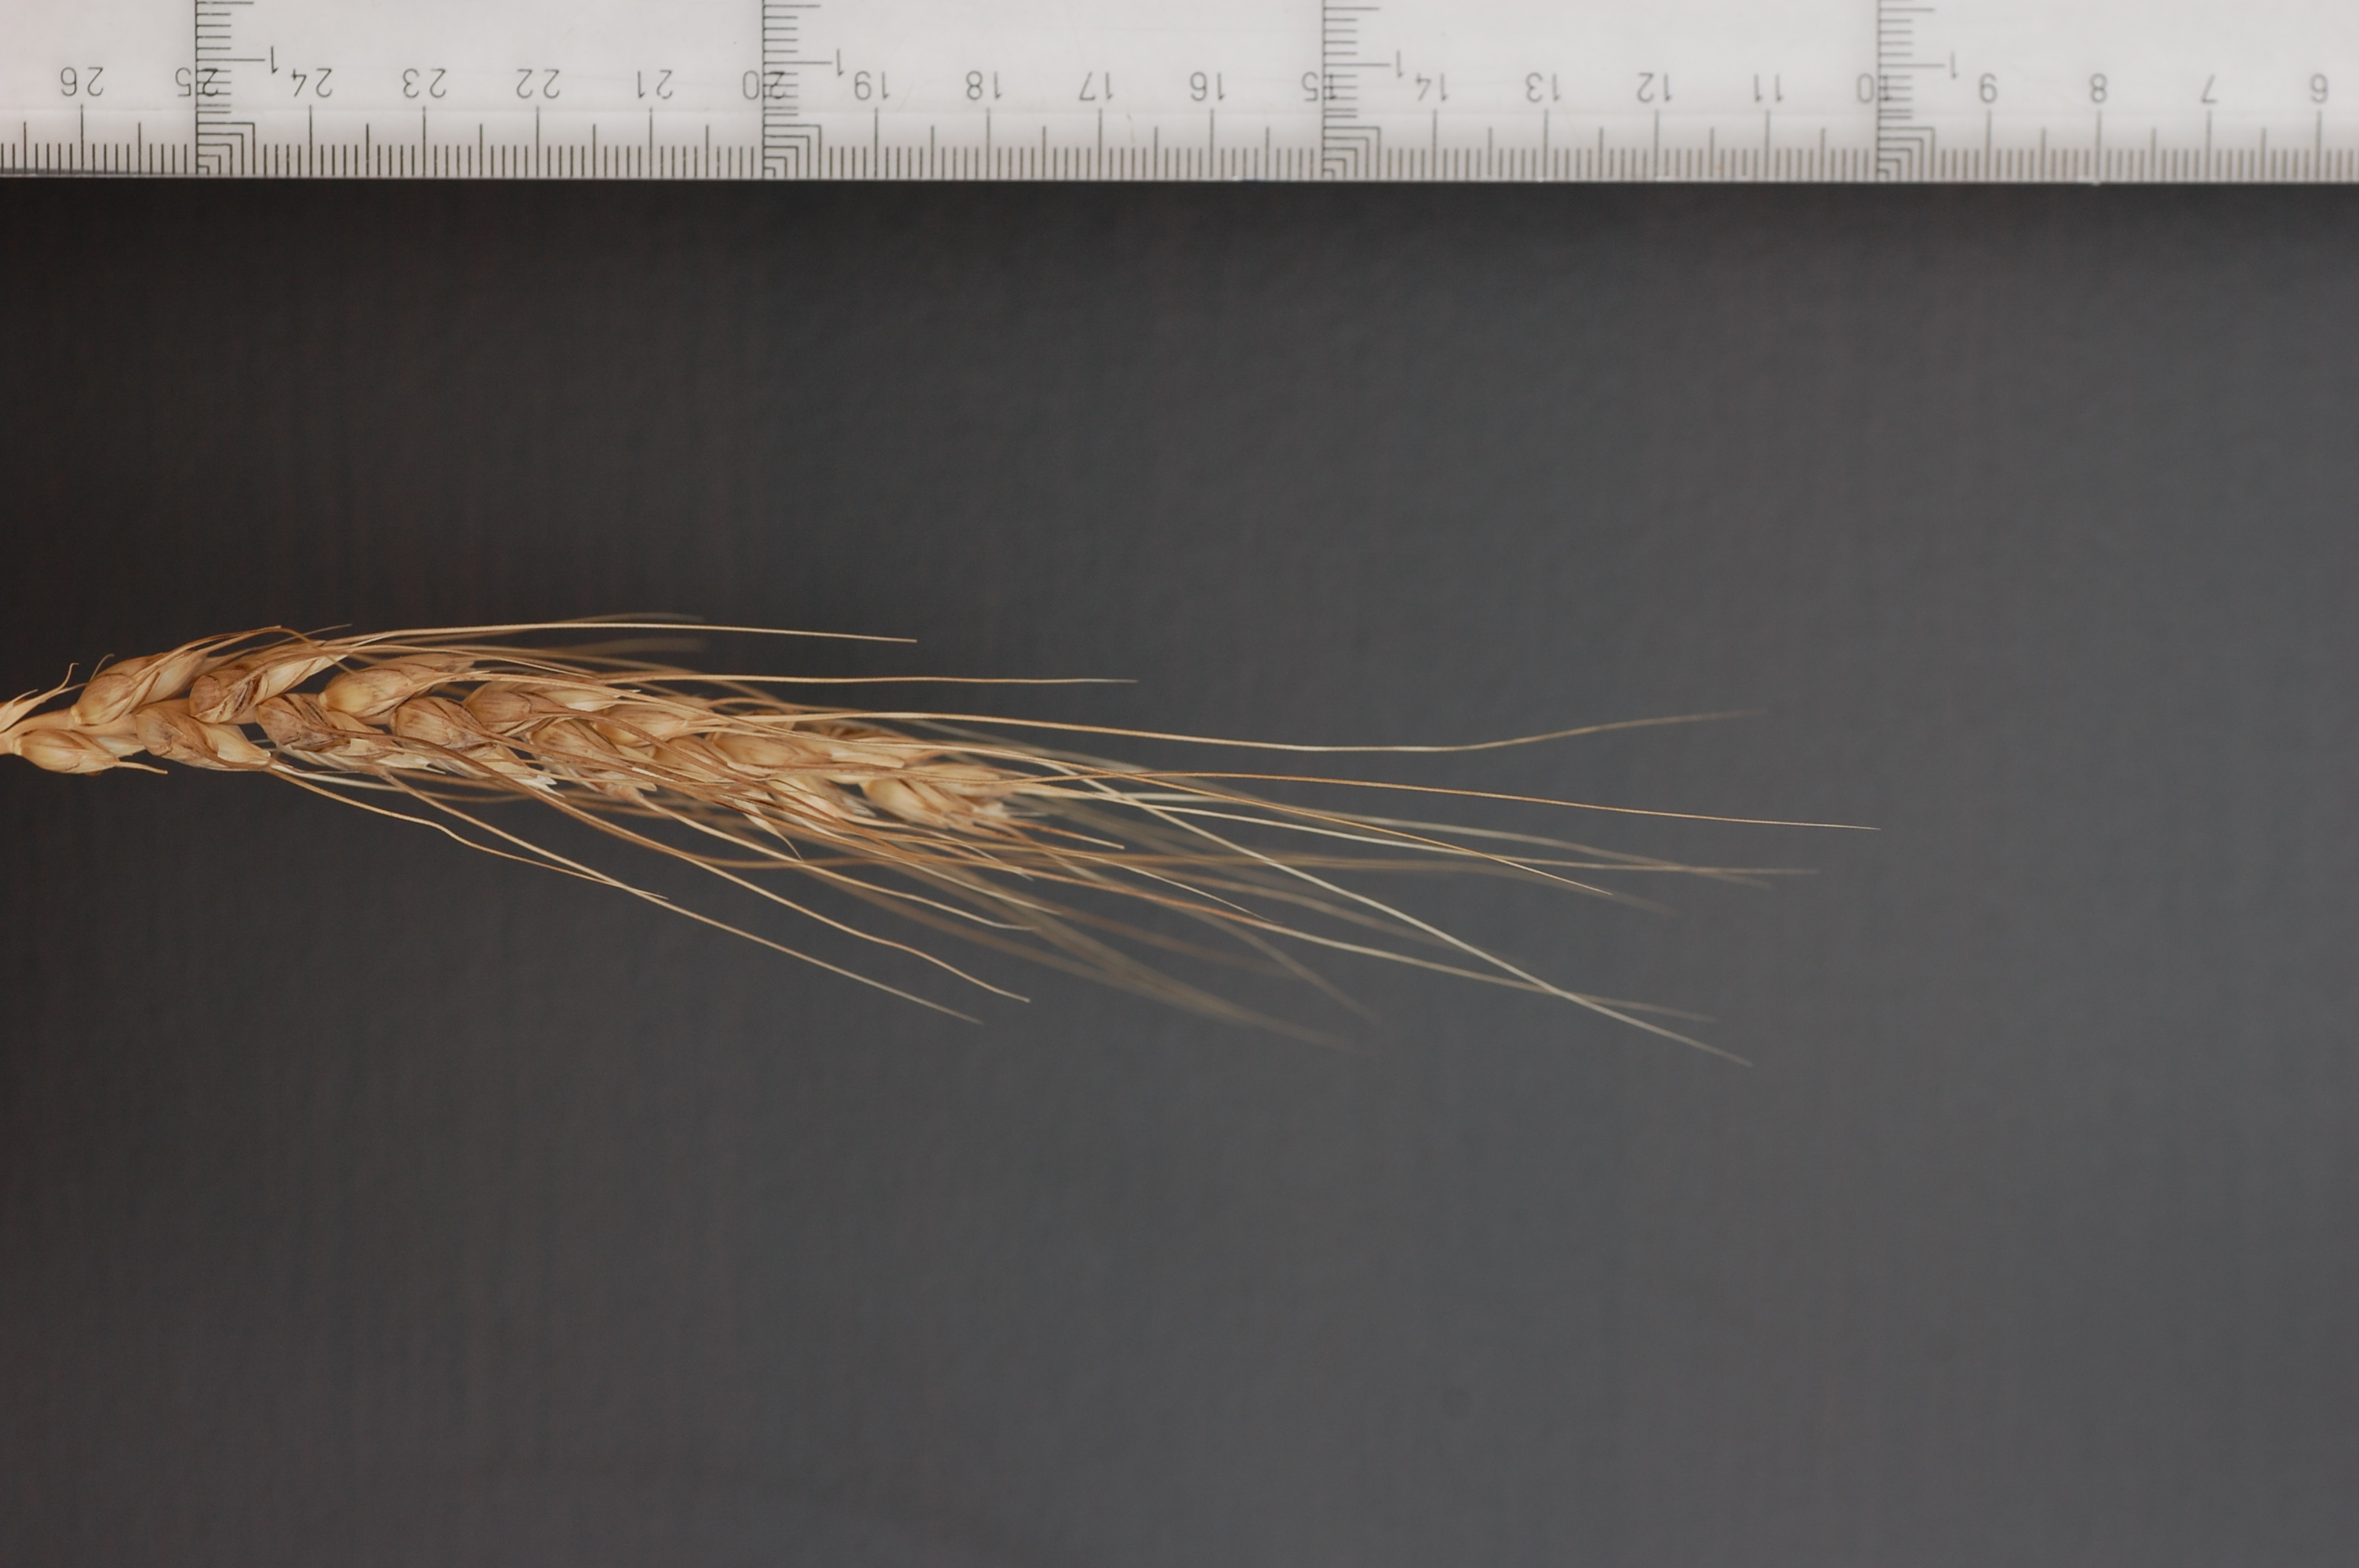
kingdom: Plantae
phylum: Tracheophyta
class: Liliopsida
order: Poales
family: Poaceae
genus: Triticum
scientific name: Triticum aestivum
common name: Common wheat
